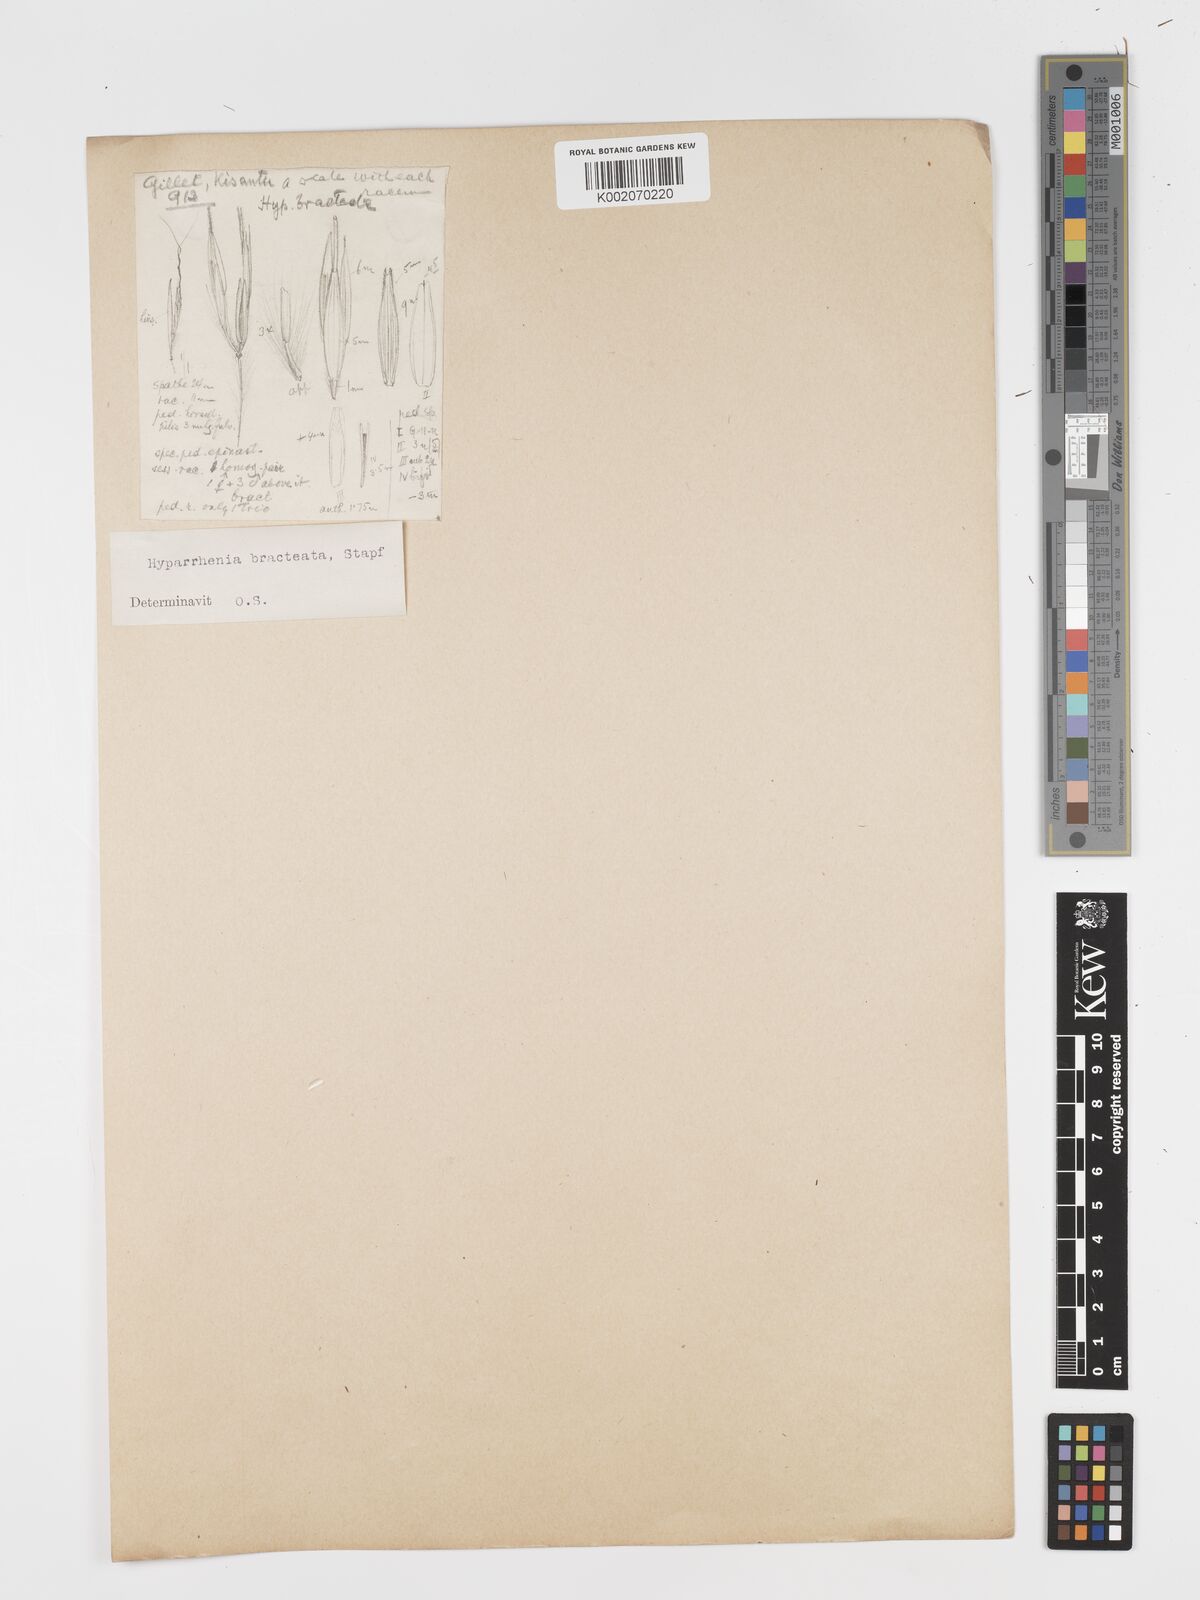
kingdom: Plantae
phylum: Tracheophyta
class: Liliopsida
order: Poales
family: Poaceae
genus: Hyparrhenia
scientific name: Hyparrhenia bracteata
